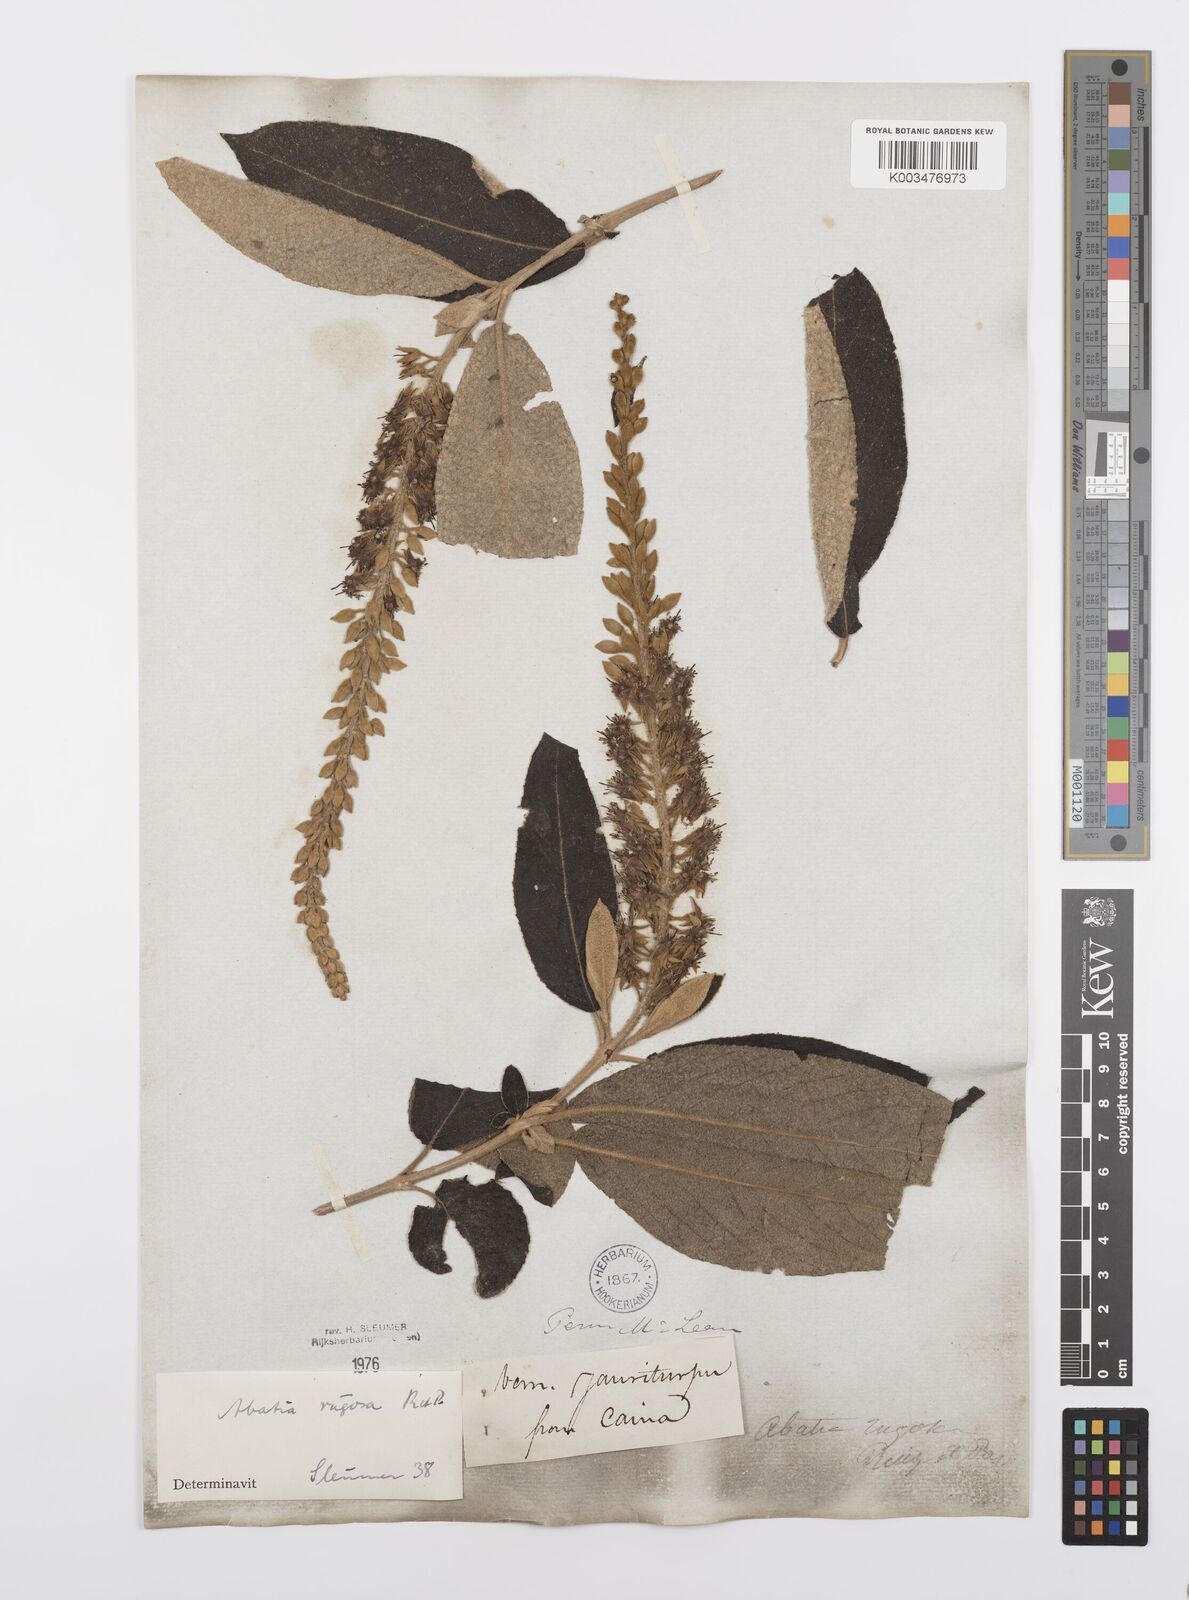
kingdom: Plantae
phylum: Tracheophyta
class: Magnoliopsida
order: Malpighiales
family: Salicaceae
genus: Abatia
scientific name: Abatia rugosa
